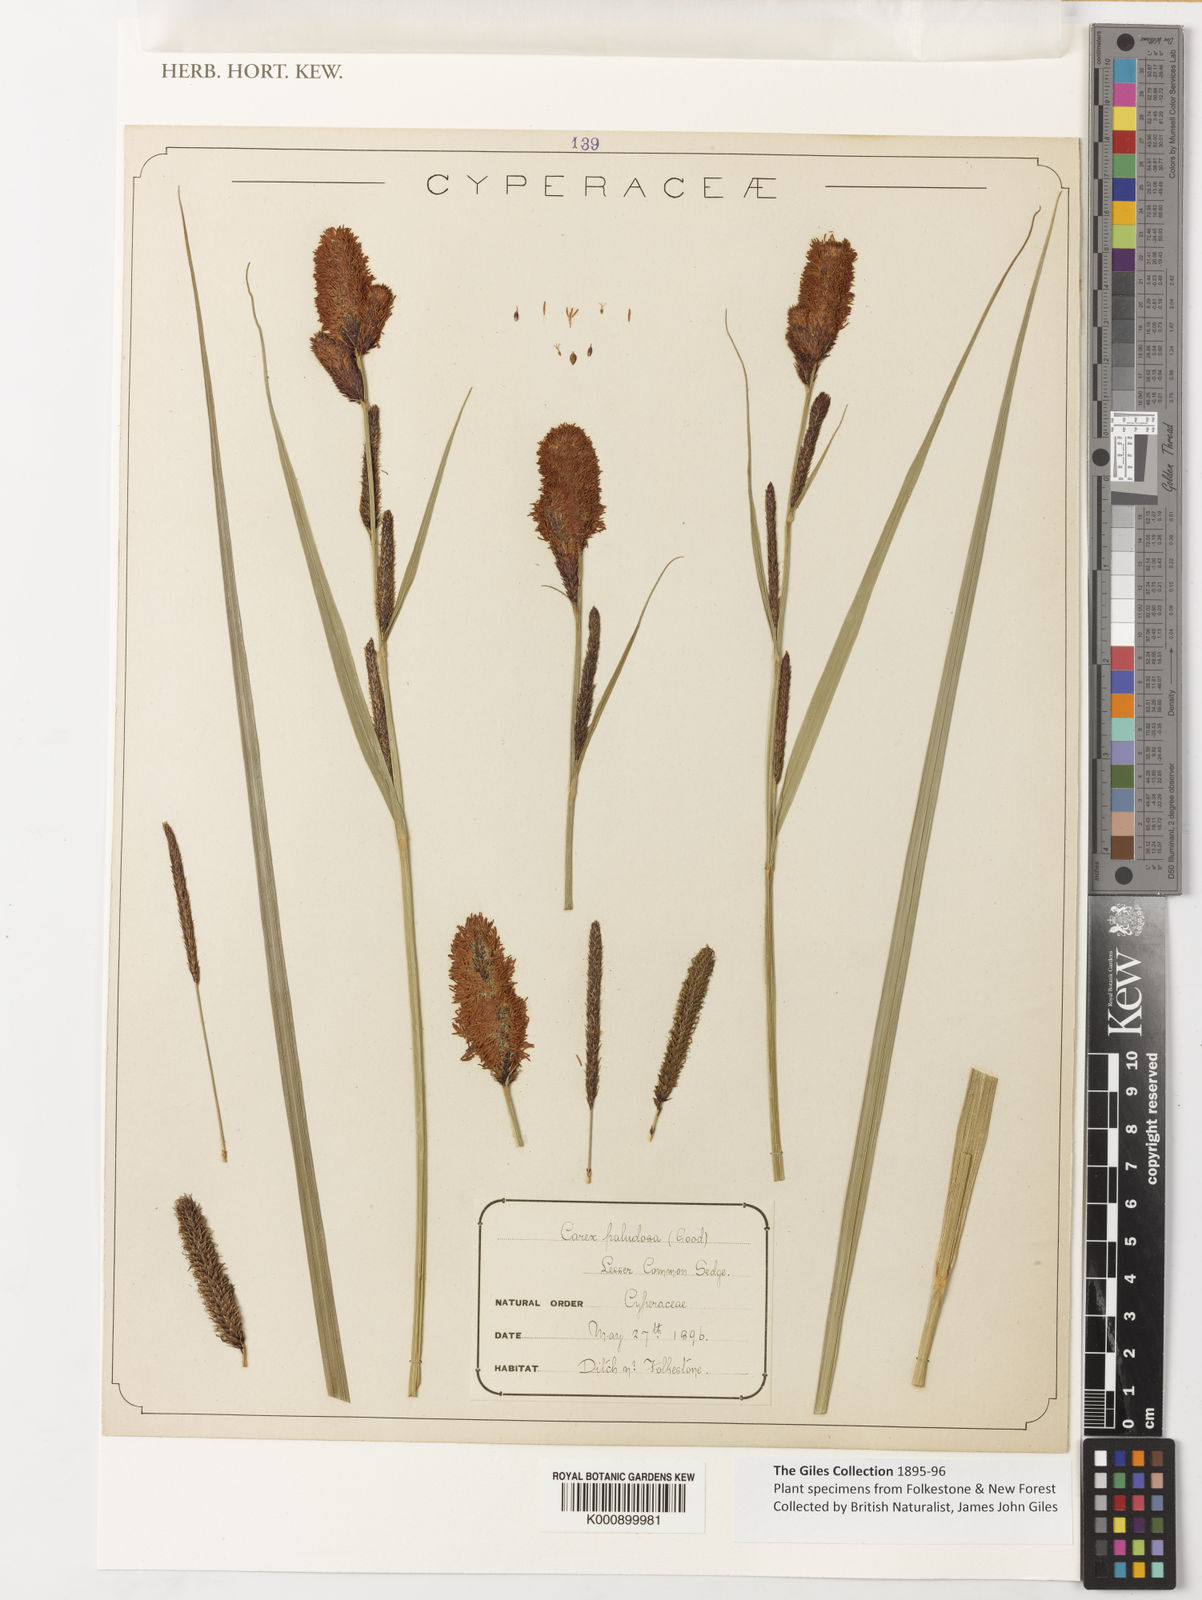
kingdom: Plantae
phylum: Tracheophyta
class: Liliopsida
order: Poales
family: Cyperaceae
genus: Carex
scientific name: Carex acutiformis
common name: Lesser pond-sedge
